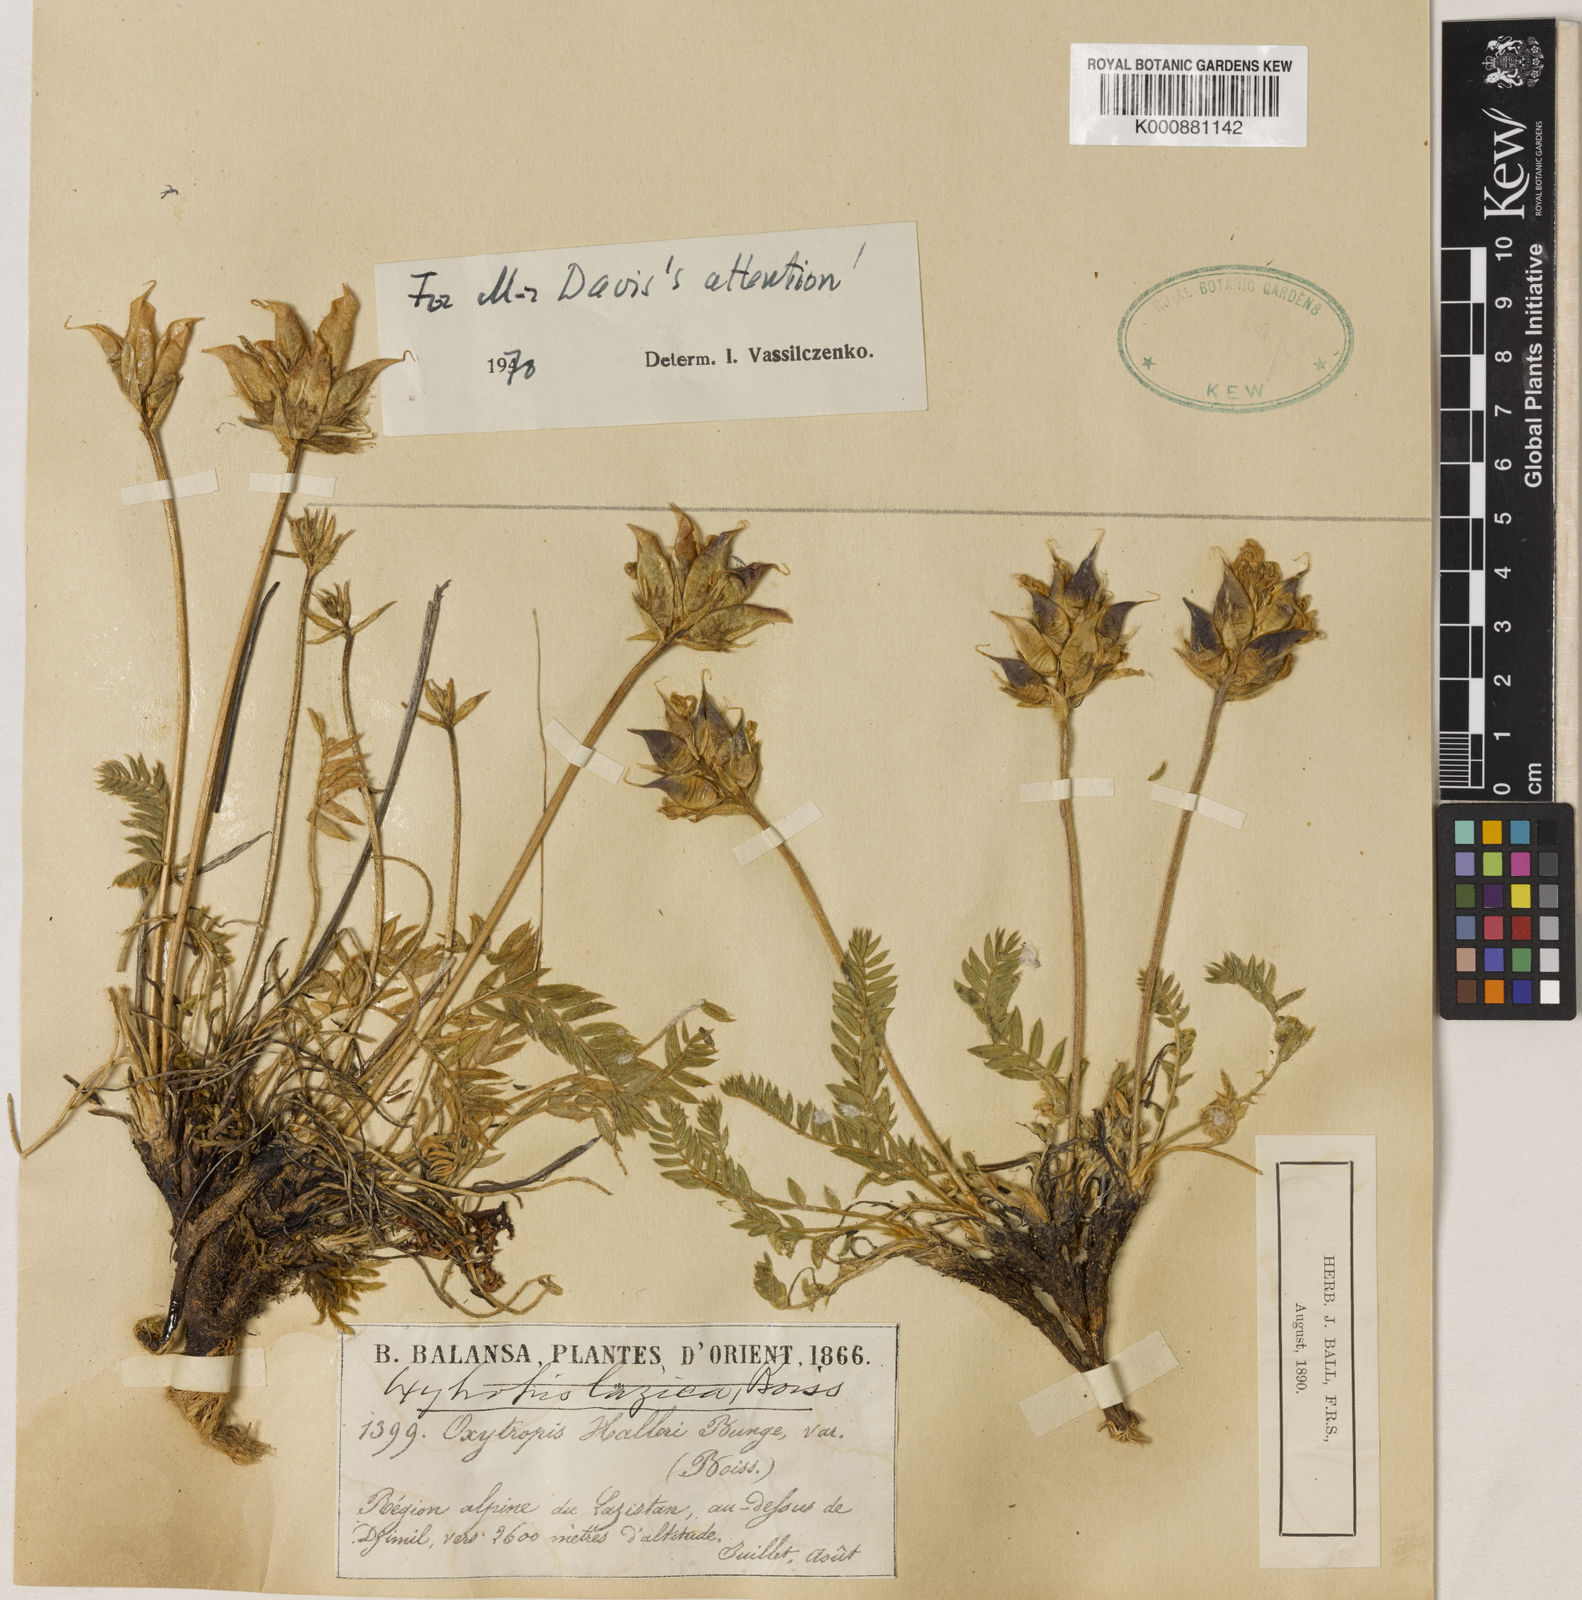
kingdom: Plantae
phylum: Tracheophyta
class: Magnoliopsida
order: Fabales
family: Fabaceae
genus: Oxytropis
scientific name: Oxytropis lazica
